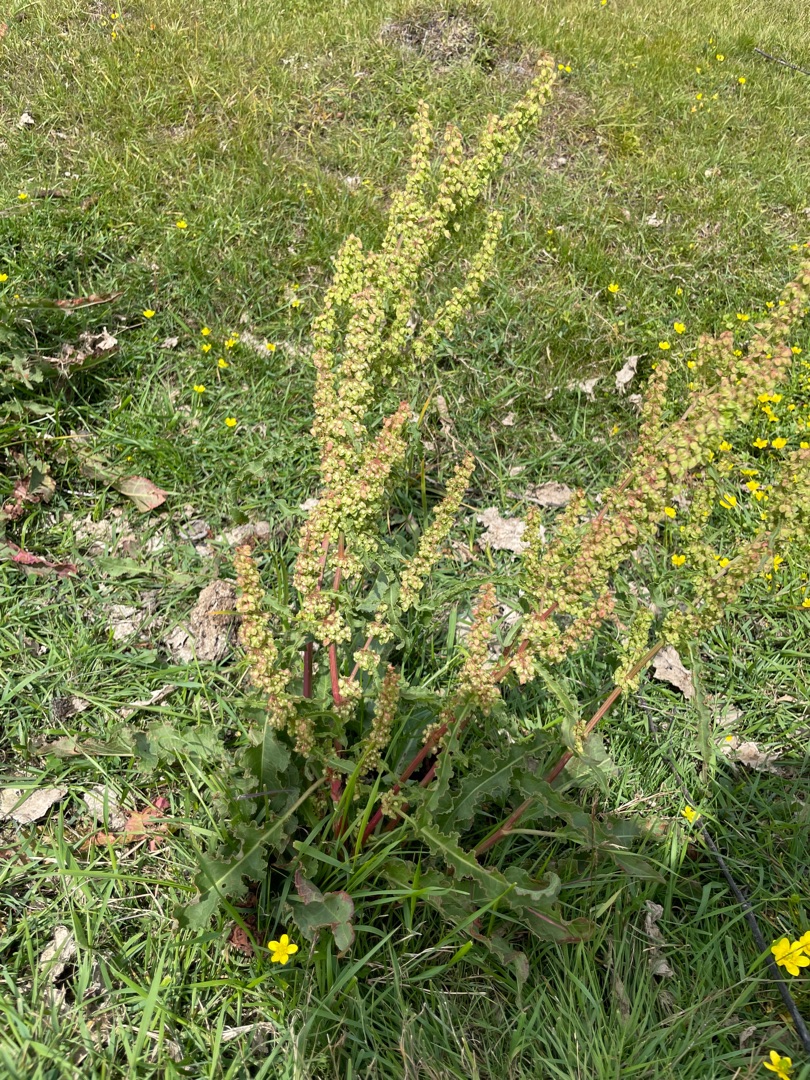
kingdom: Plantae
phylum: Tracheophyta
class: Magnoliopsida
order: Caryophyllales
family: Polygonaceae
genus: Rumex
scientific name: Rumex crispus
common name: Kruset skræppe
